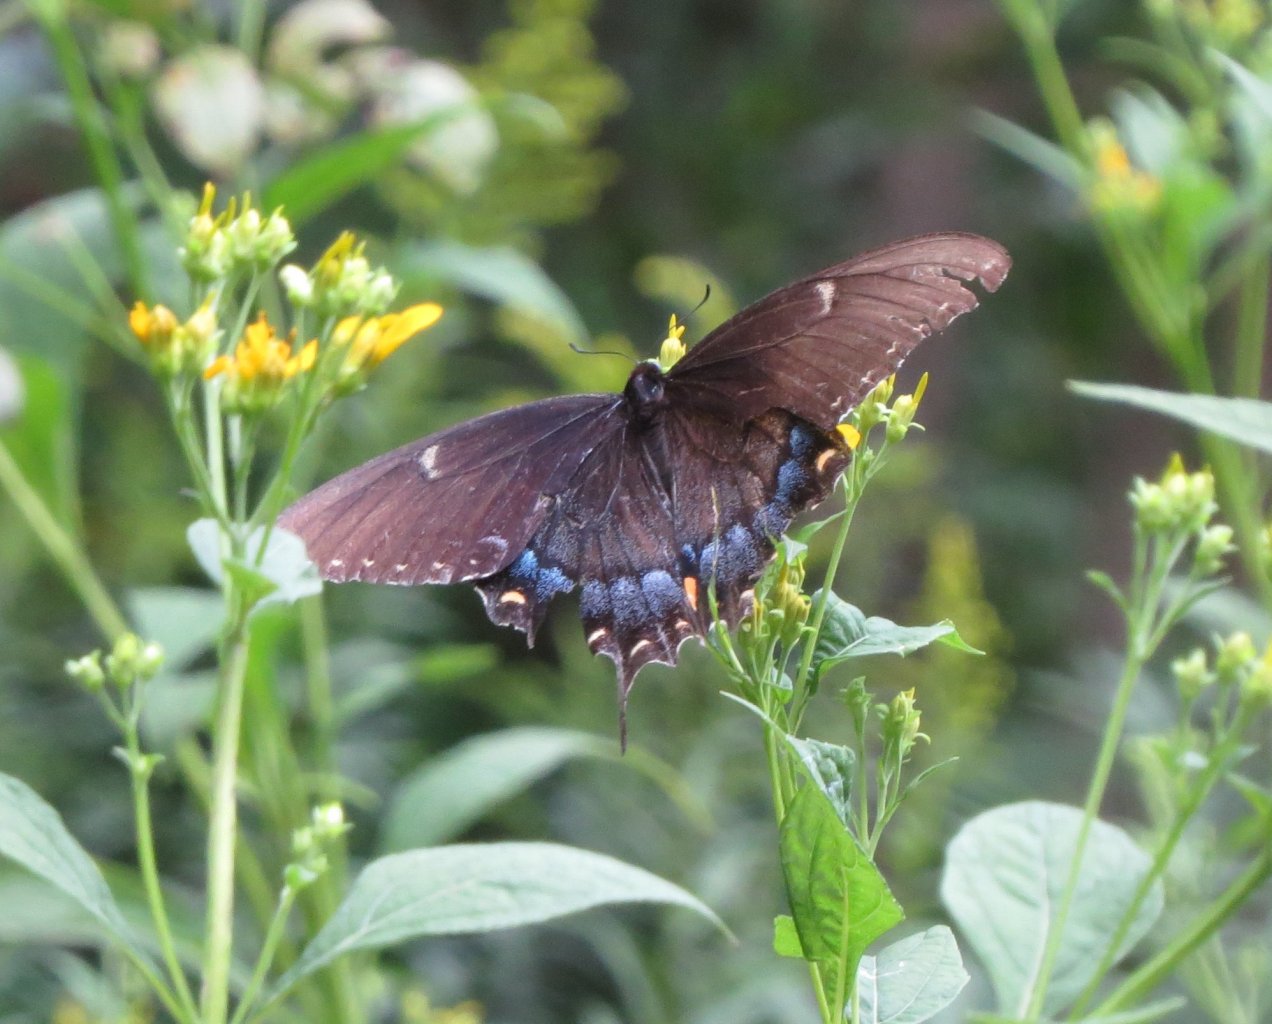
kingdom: Animalia
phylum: Arthropoda
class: Insecta
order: Lepidoptera
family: Papilionidae
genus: Pterourus
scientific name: Pterourus glaucus
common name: Eastern Tiger Swallowtail
